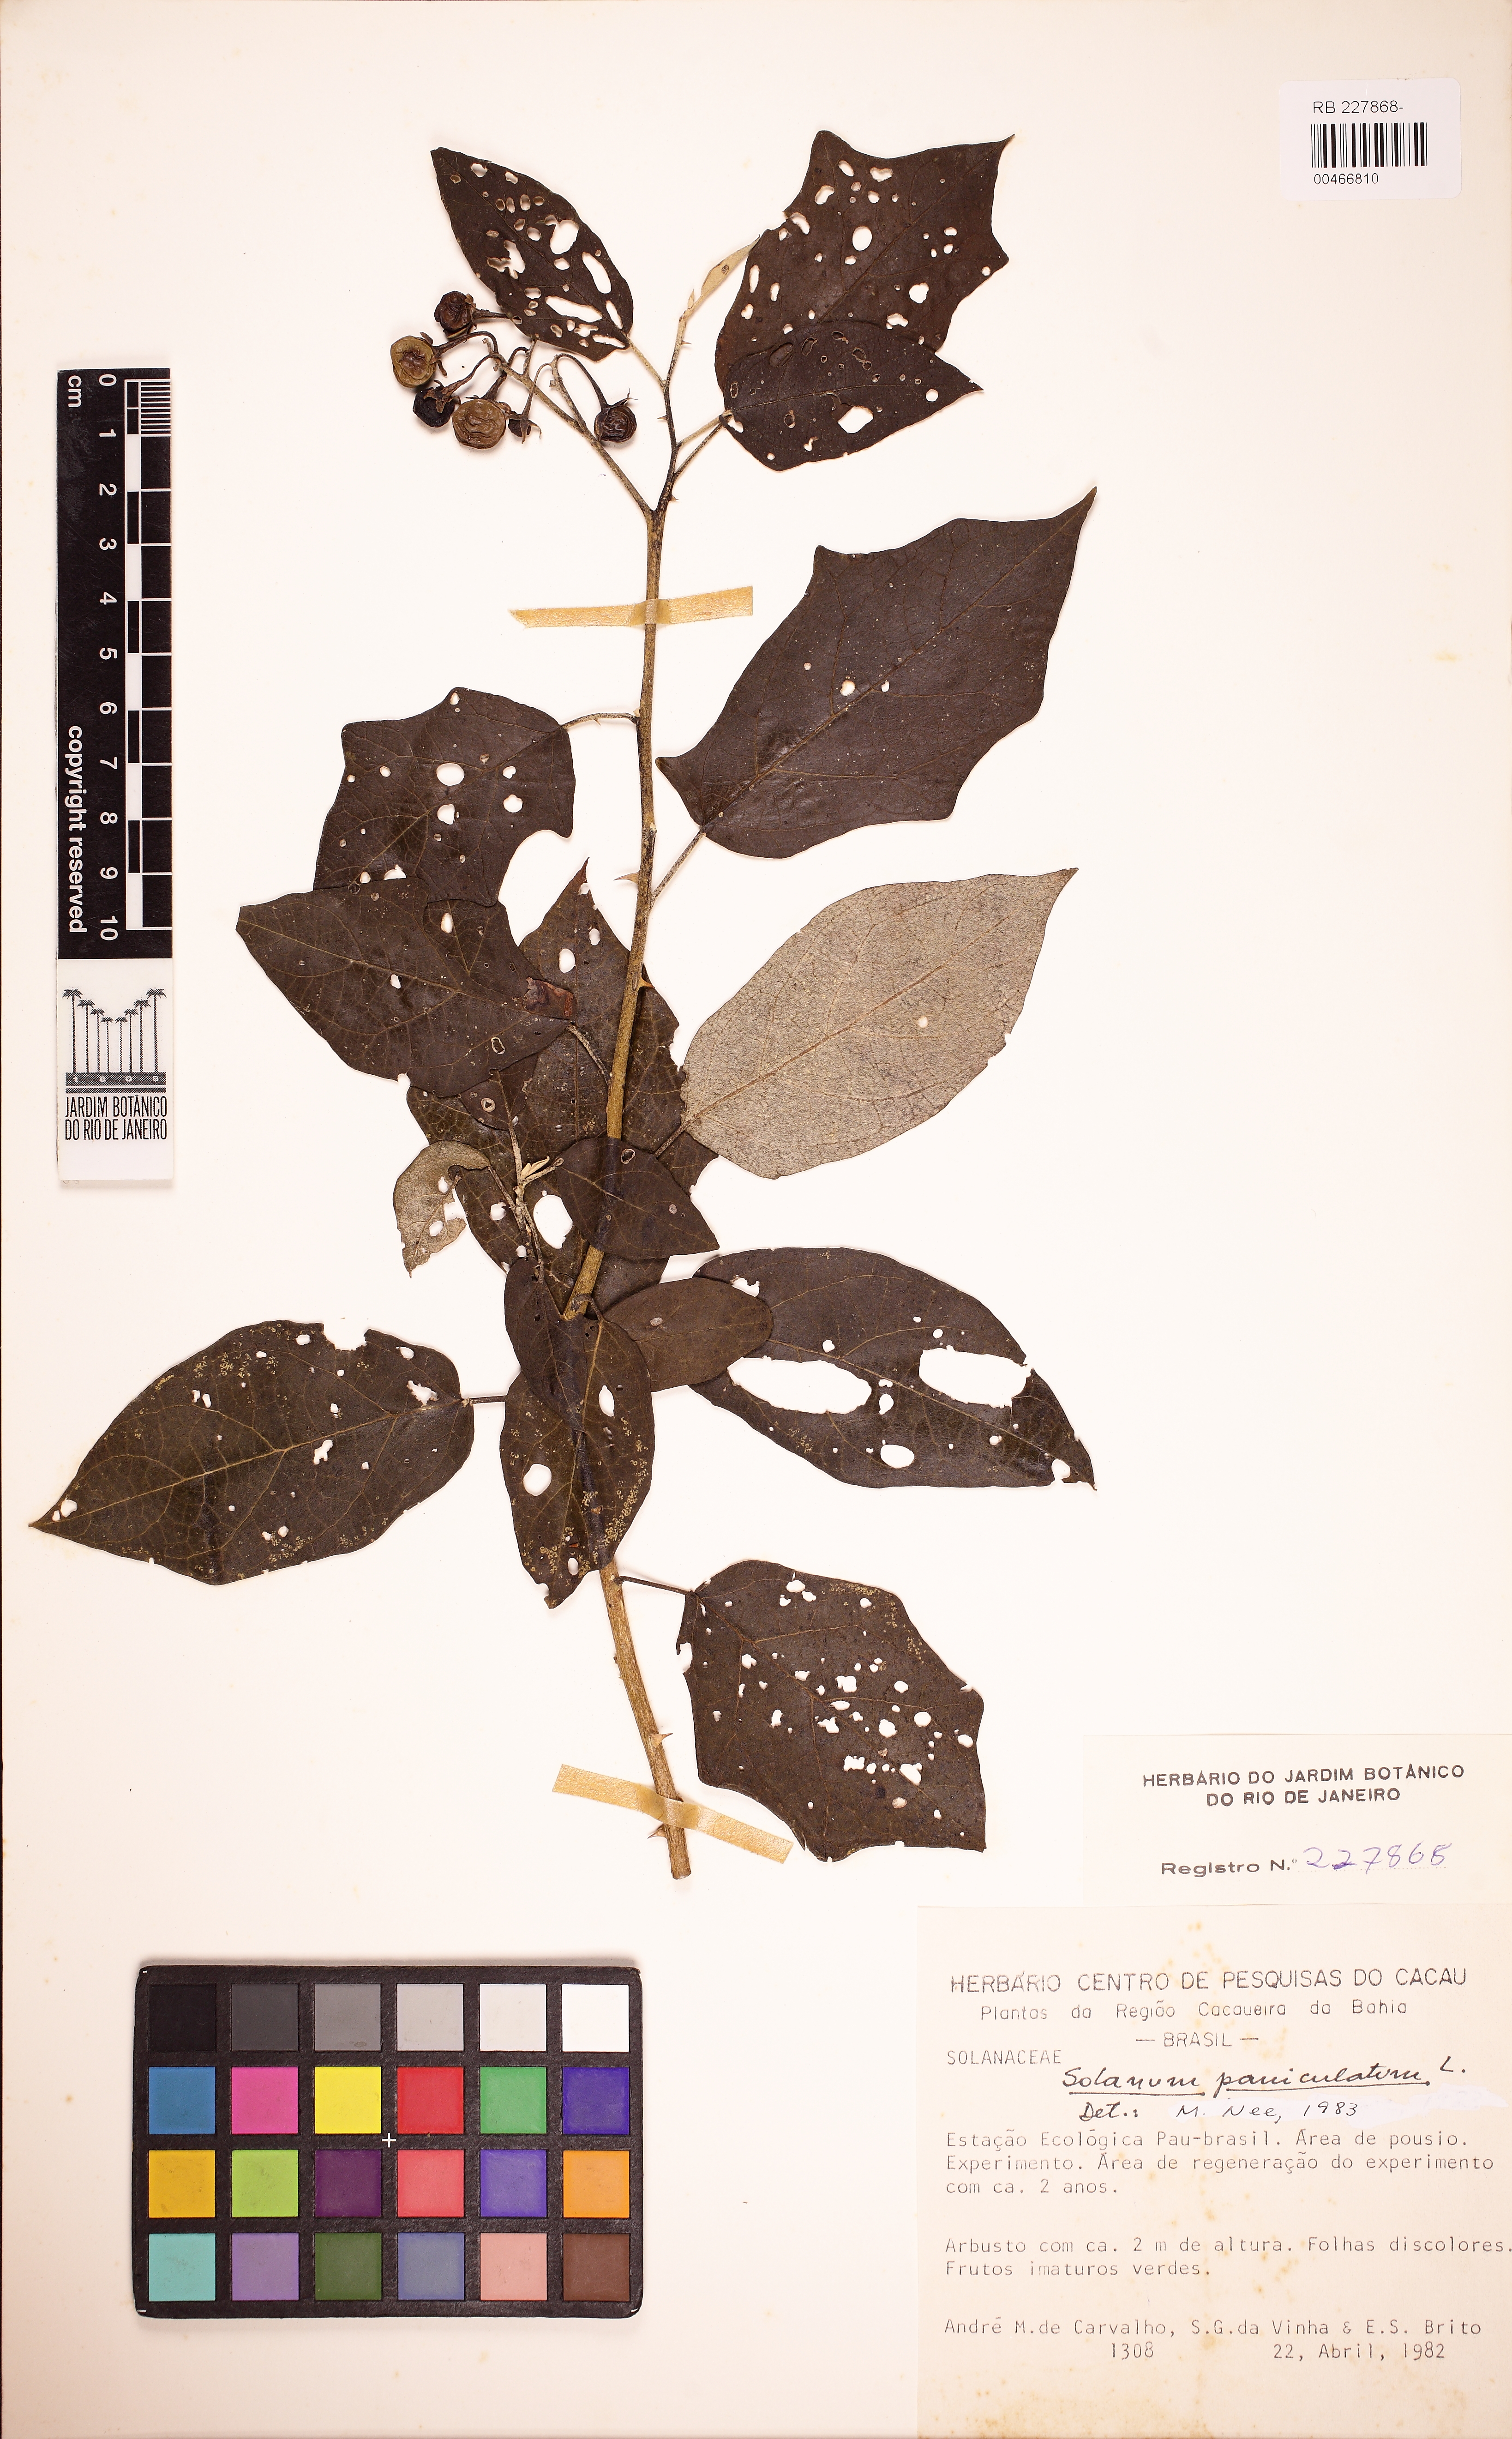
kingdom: Plantae
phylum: Tracheophyta
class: Magnoliopsida
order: Solanales
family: Solanaceae
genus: Solanum
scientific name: Solanum paniculatum
